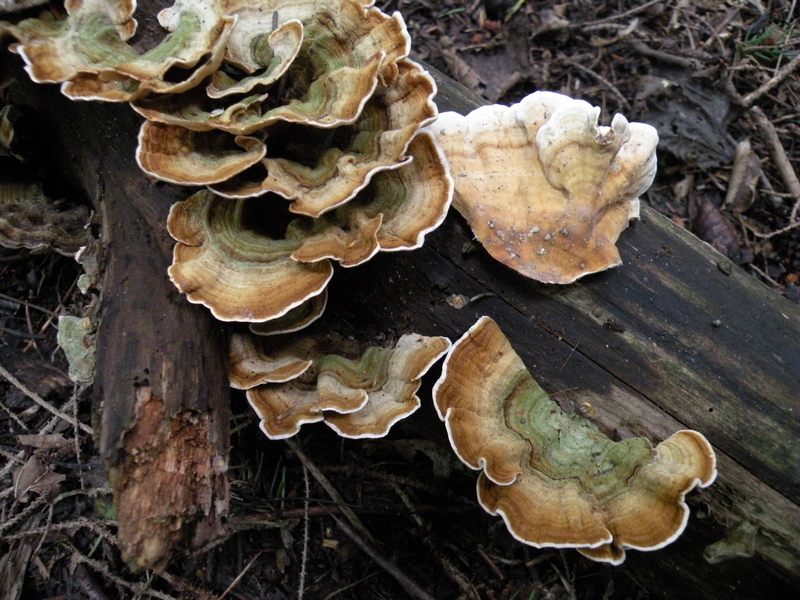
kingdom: Fungi
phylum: Basidiomycota
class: Agaricomycetes
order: Russulales
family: Stereaceae
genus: Stereum
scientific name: Stereum subtomentosum
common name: smuk lædersvamp
